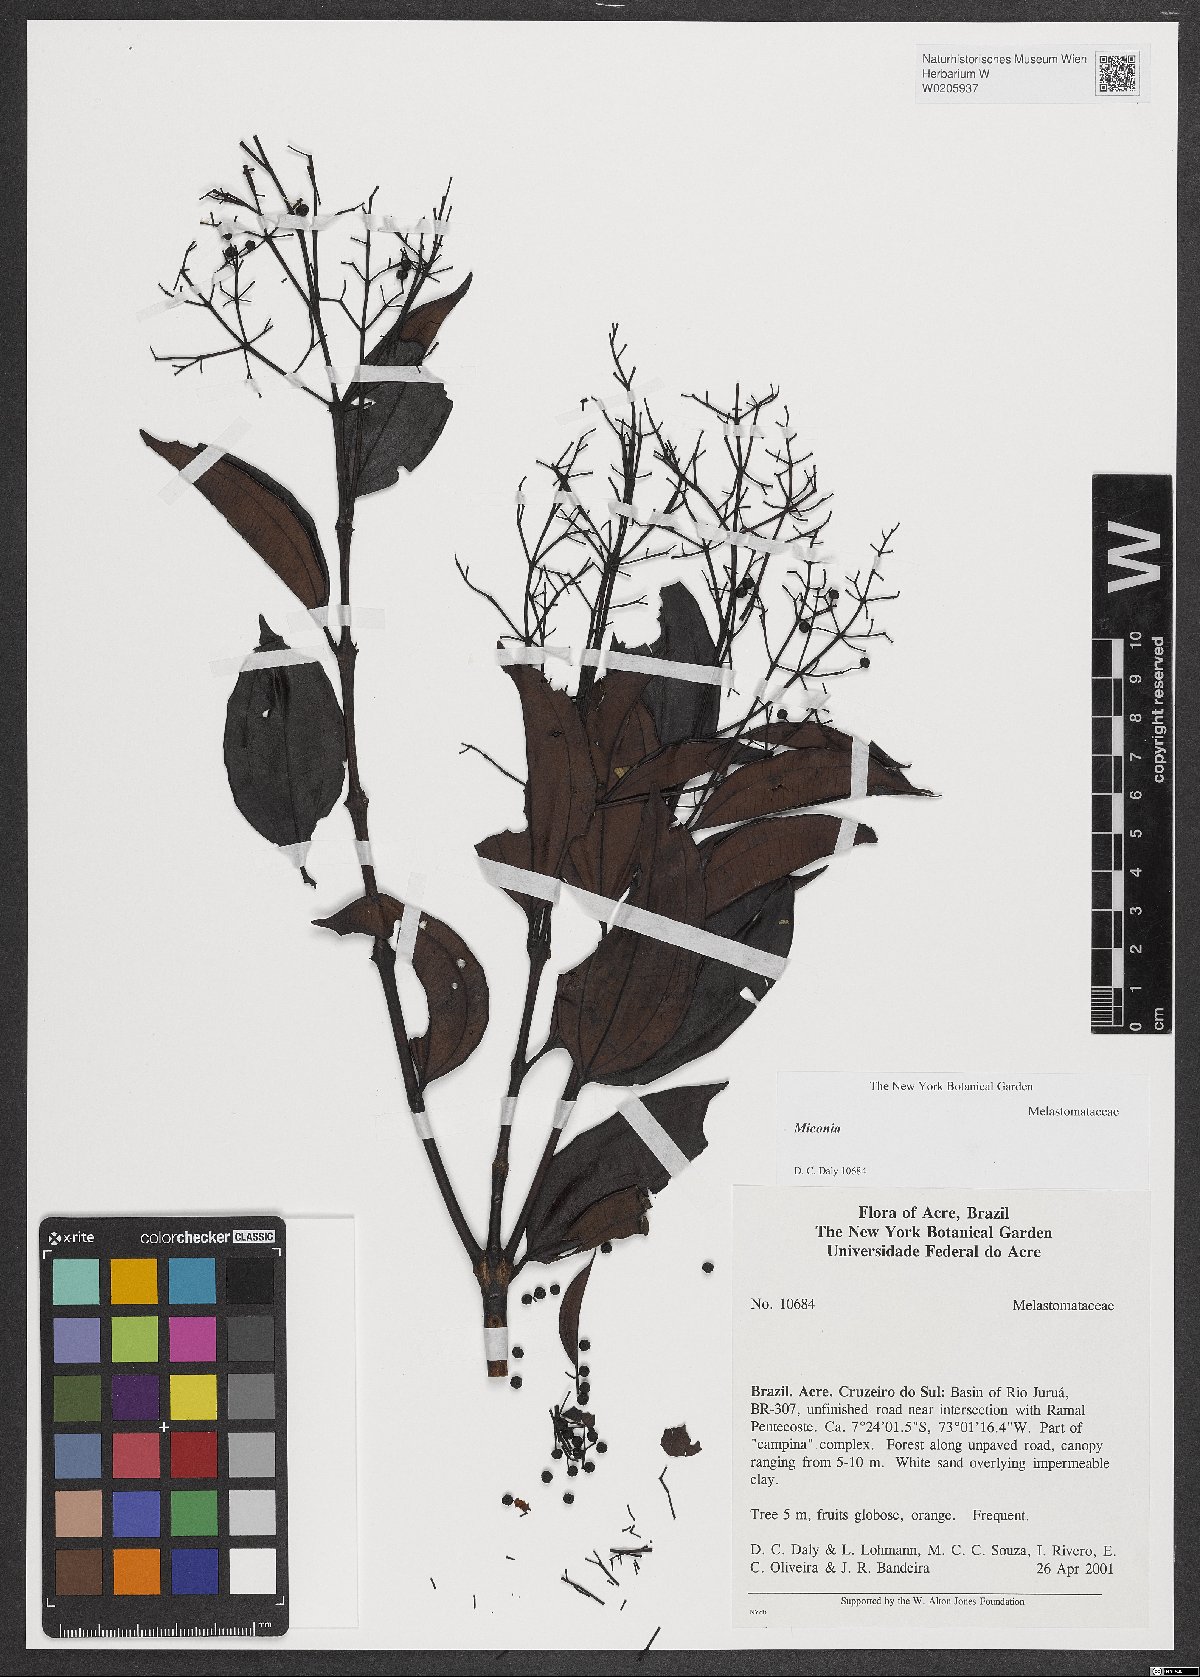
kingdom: Plantae
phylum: Tracheophyta
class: Magnoliopsida
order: Myrtales
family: Melastomataceae
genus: Miconia
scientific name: Miconia
